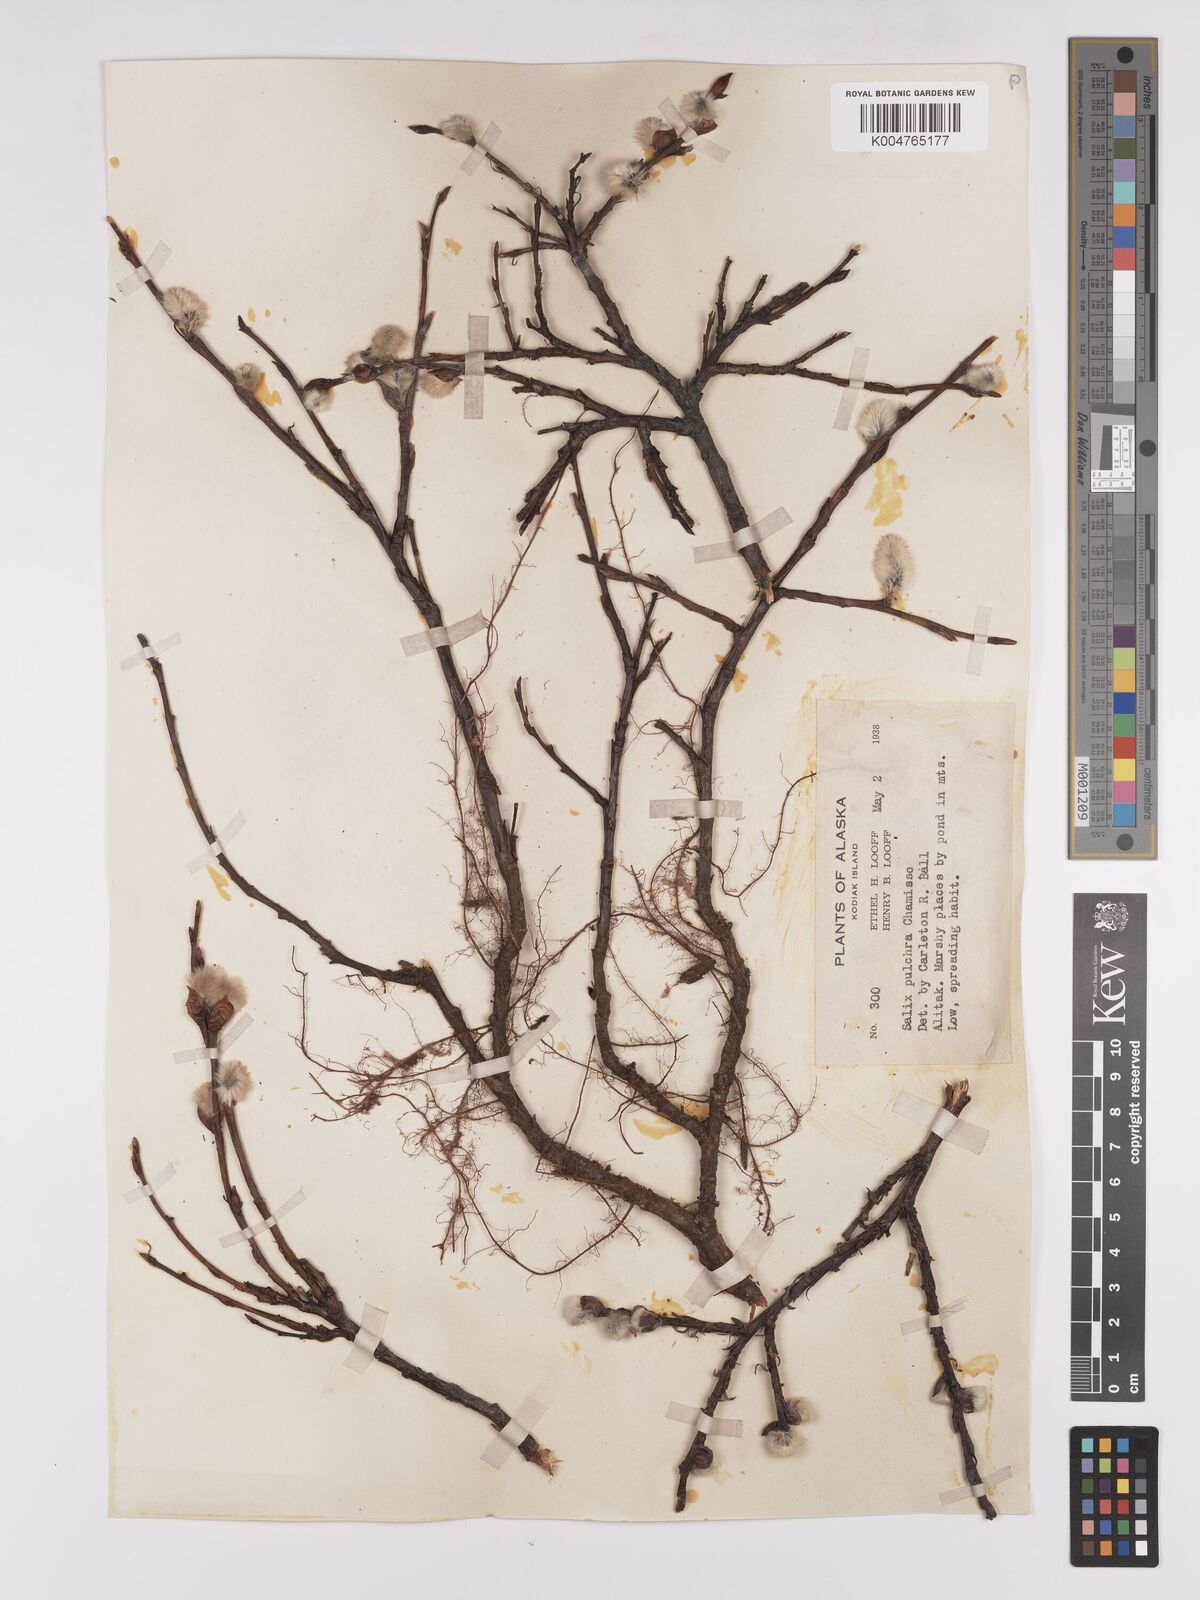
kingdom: Plantae
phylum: Tracheophyta
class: Magnoliopsida
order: Malpighiales
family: Salicaceae
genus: Salix
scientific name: Salix
